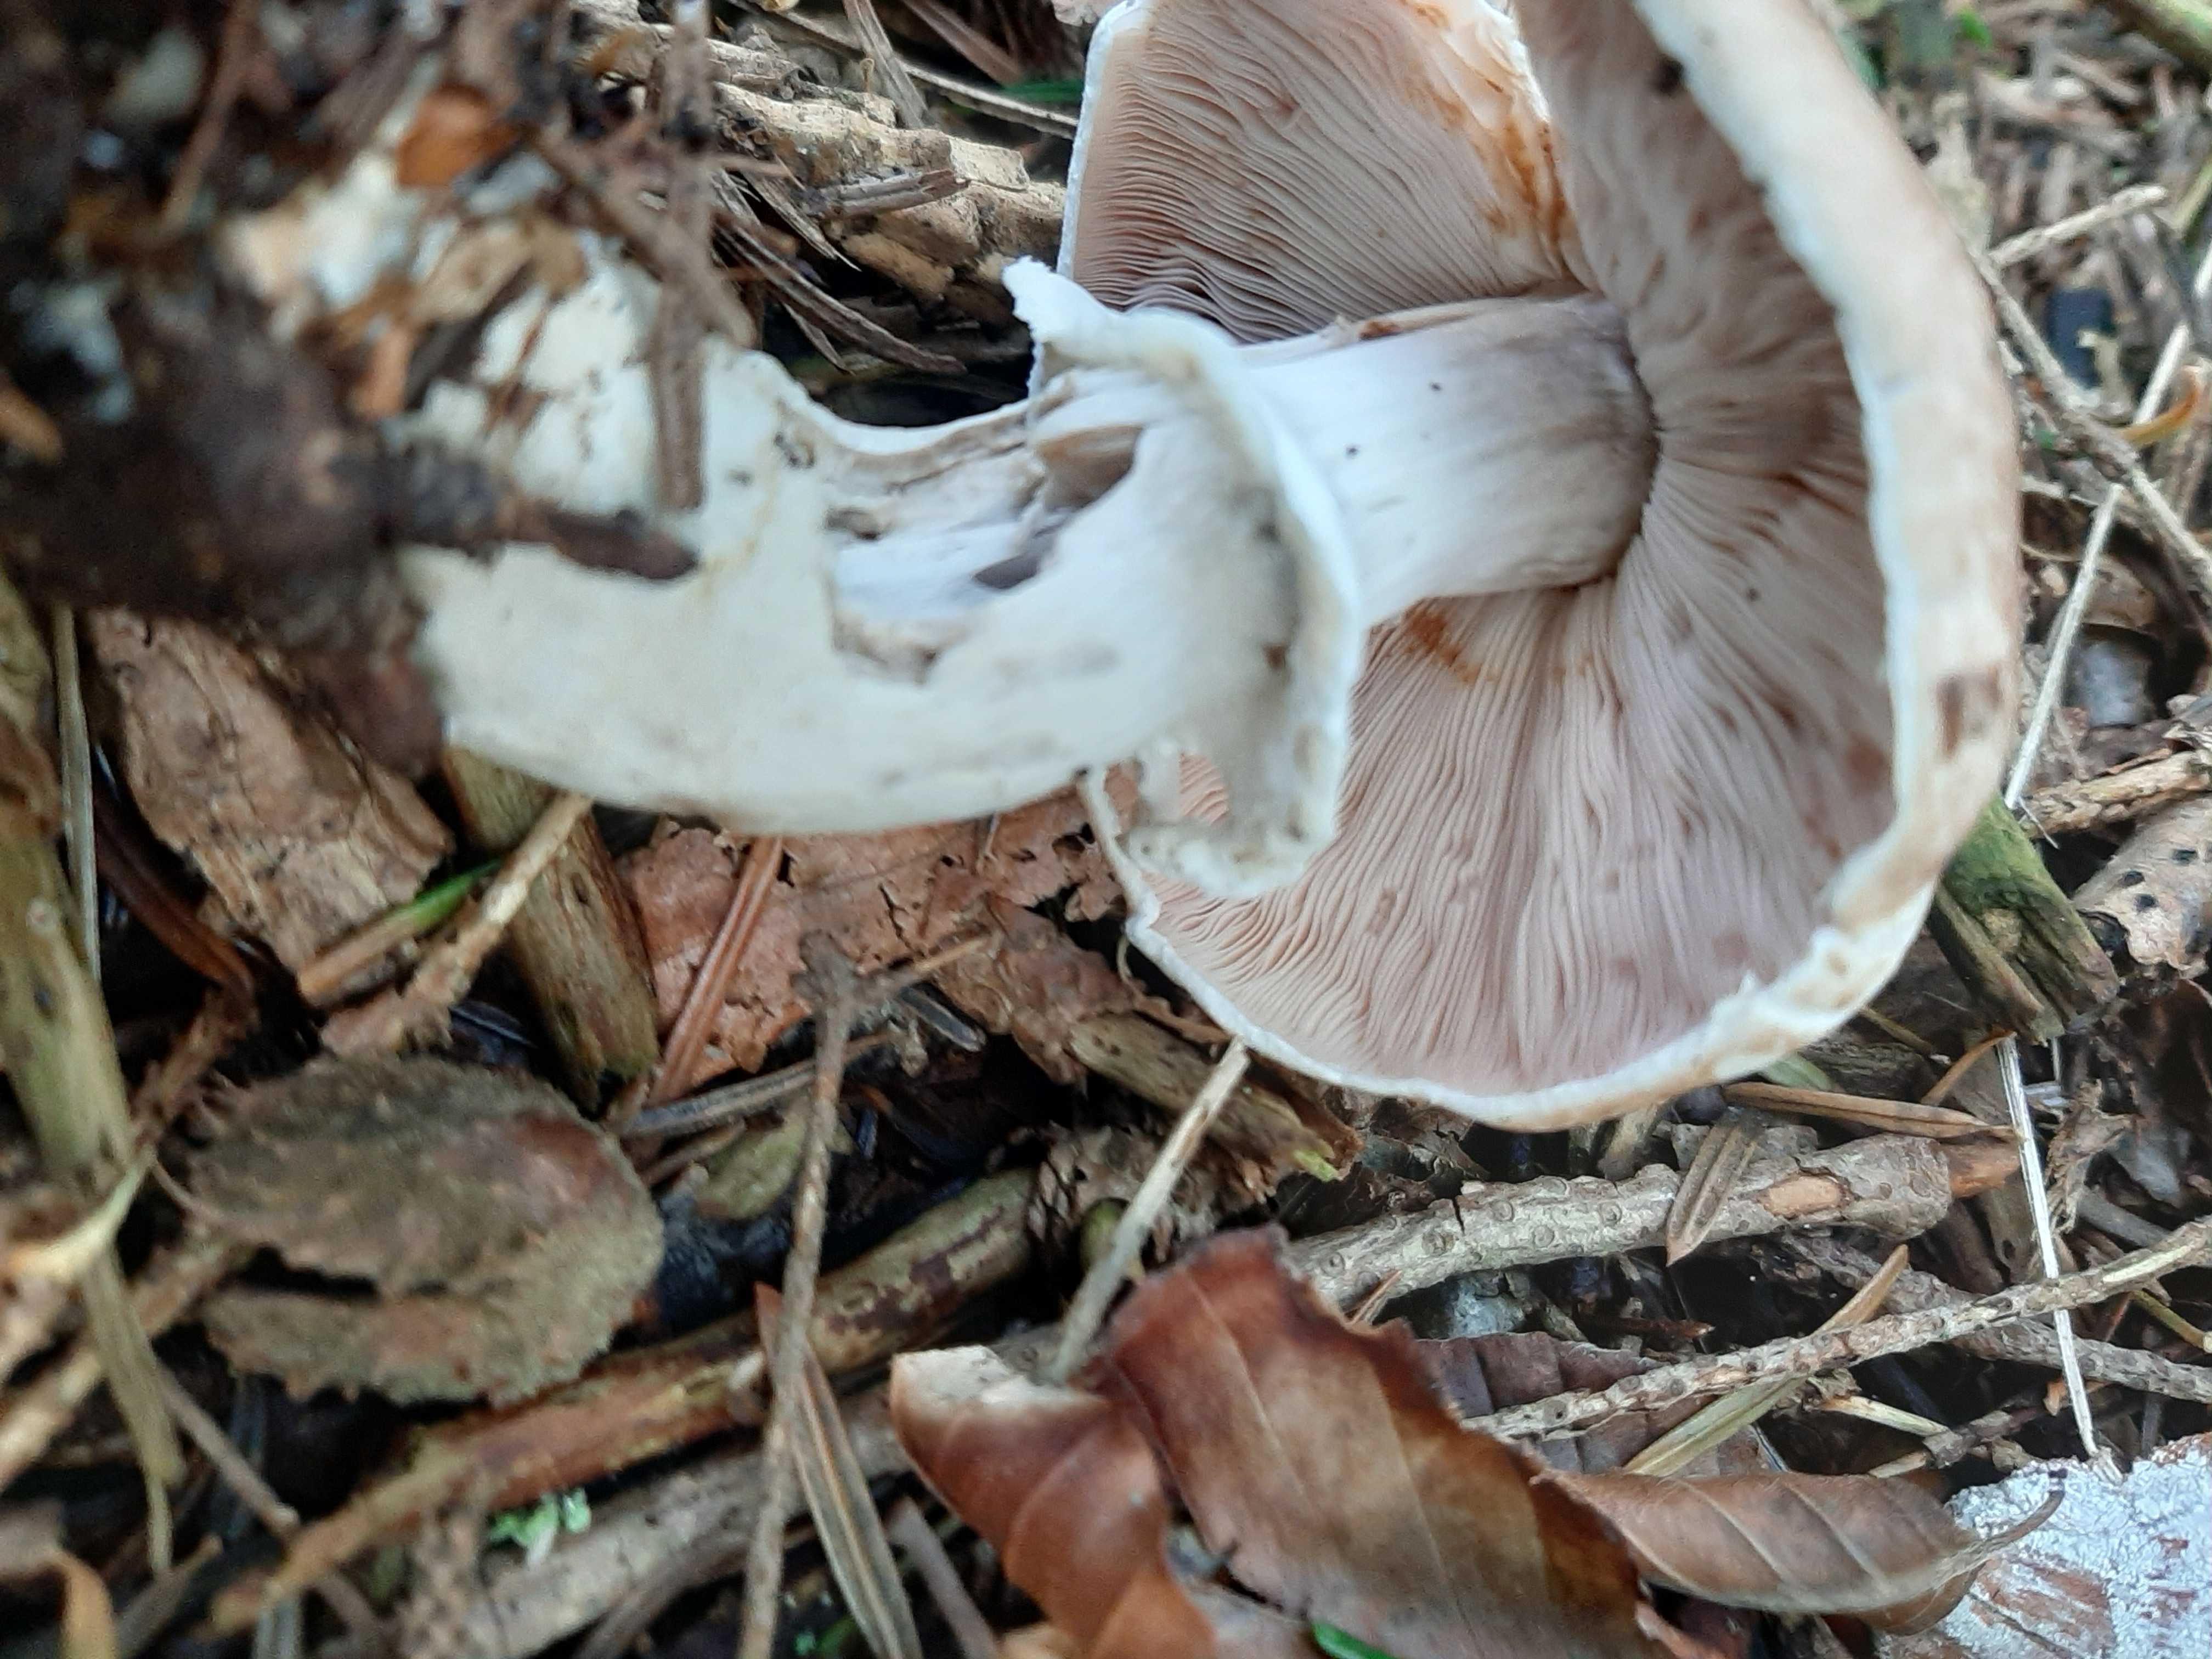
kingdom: Fungi
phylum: Basidiomycota
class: Agaricomycetes
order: Agaricales
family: Agaricaceae
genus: Agaricus
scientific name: Agaricus
